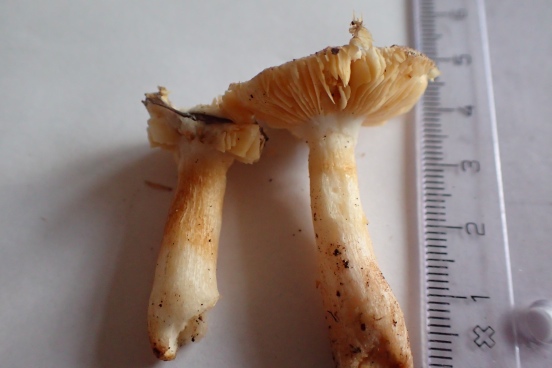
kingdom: Fungi
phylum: Basidiomycota
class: Agaricomycetes
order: Russulales
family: Russulaceae
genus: Russula
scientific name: Russula odorata
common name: duft-skørhat
